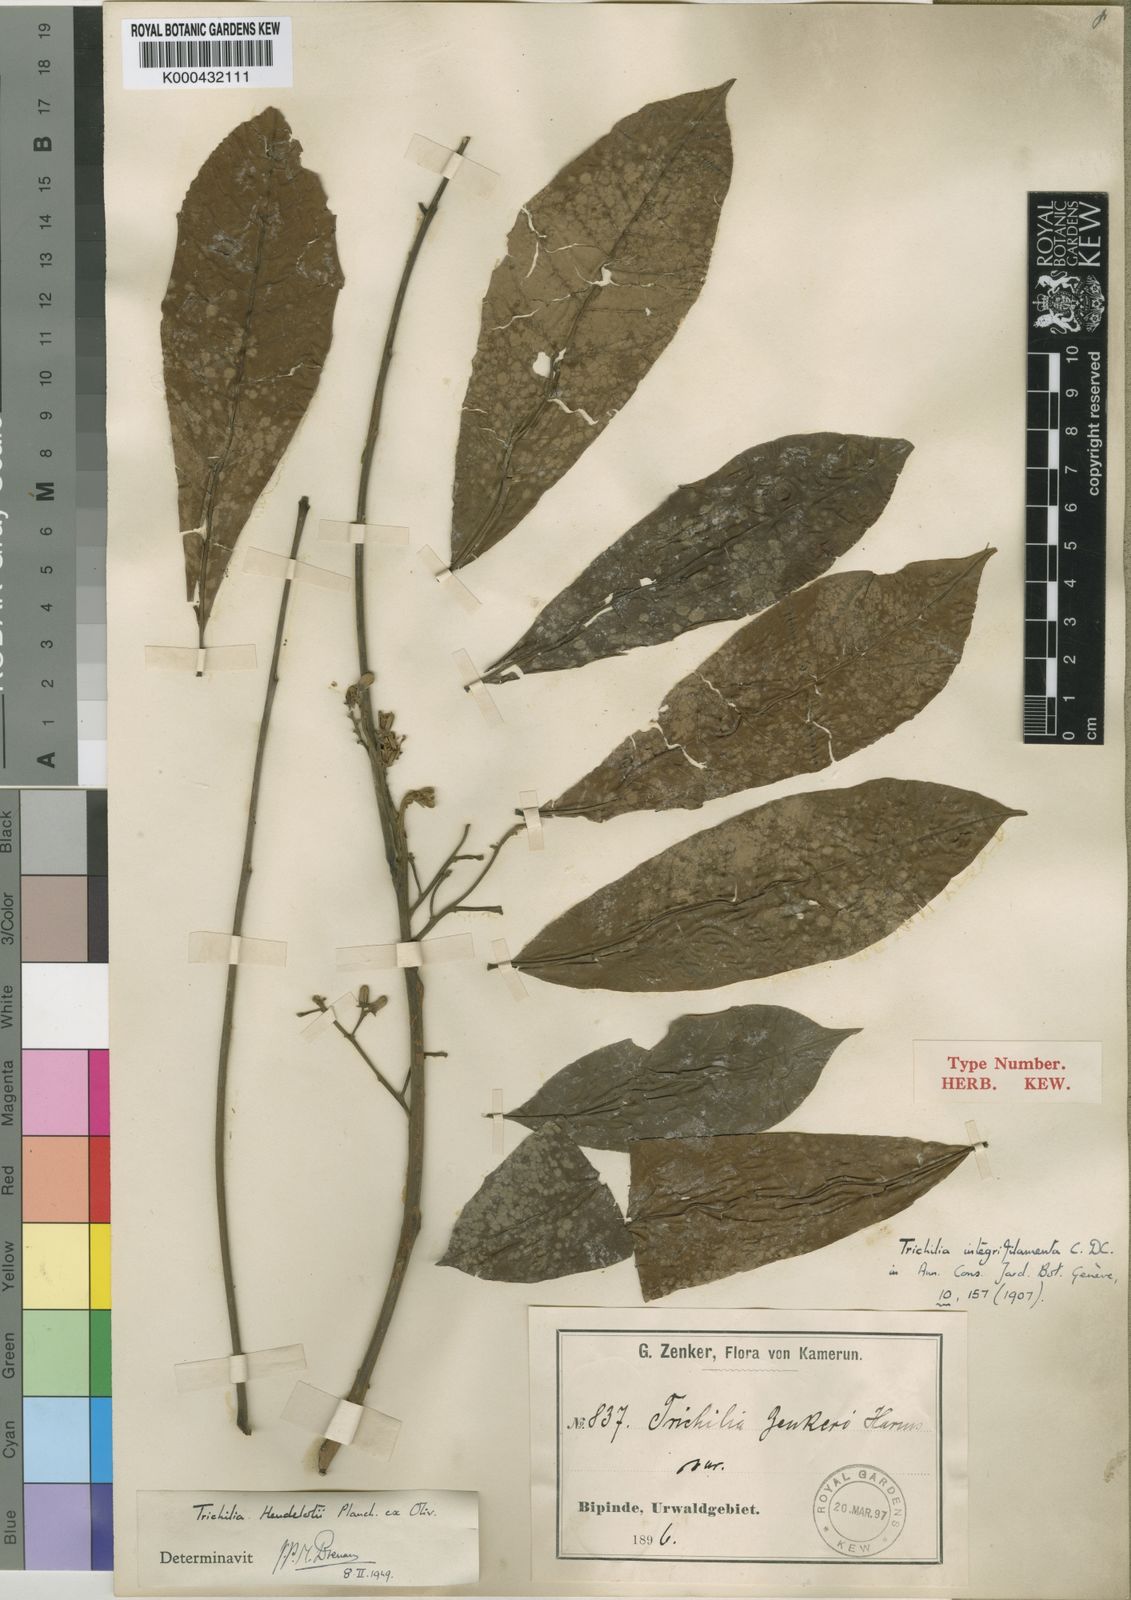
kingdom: Plantae
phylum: Tracheophyta
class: Magnoliopsida
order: Sapindales
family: Meliaceae
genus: Trichilia
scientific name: Trichilia monadelpha
